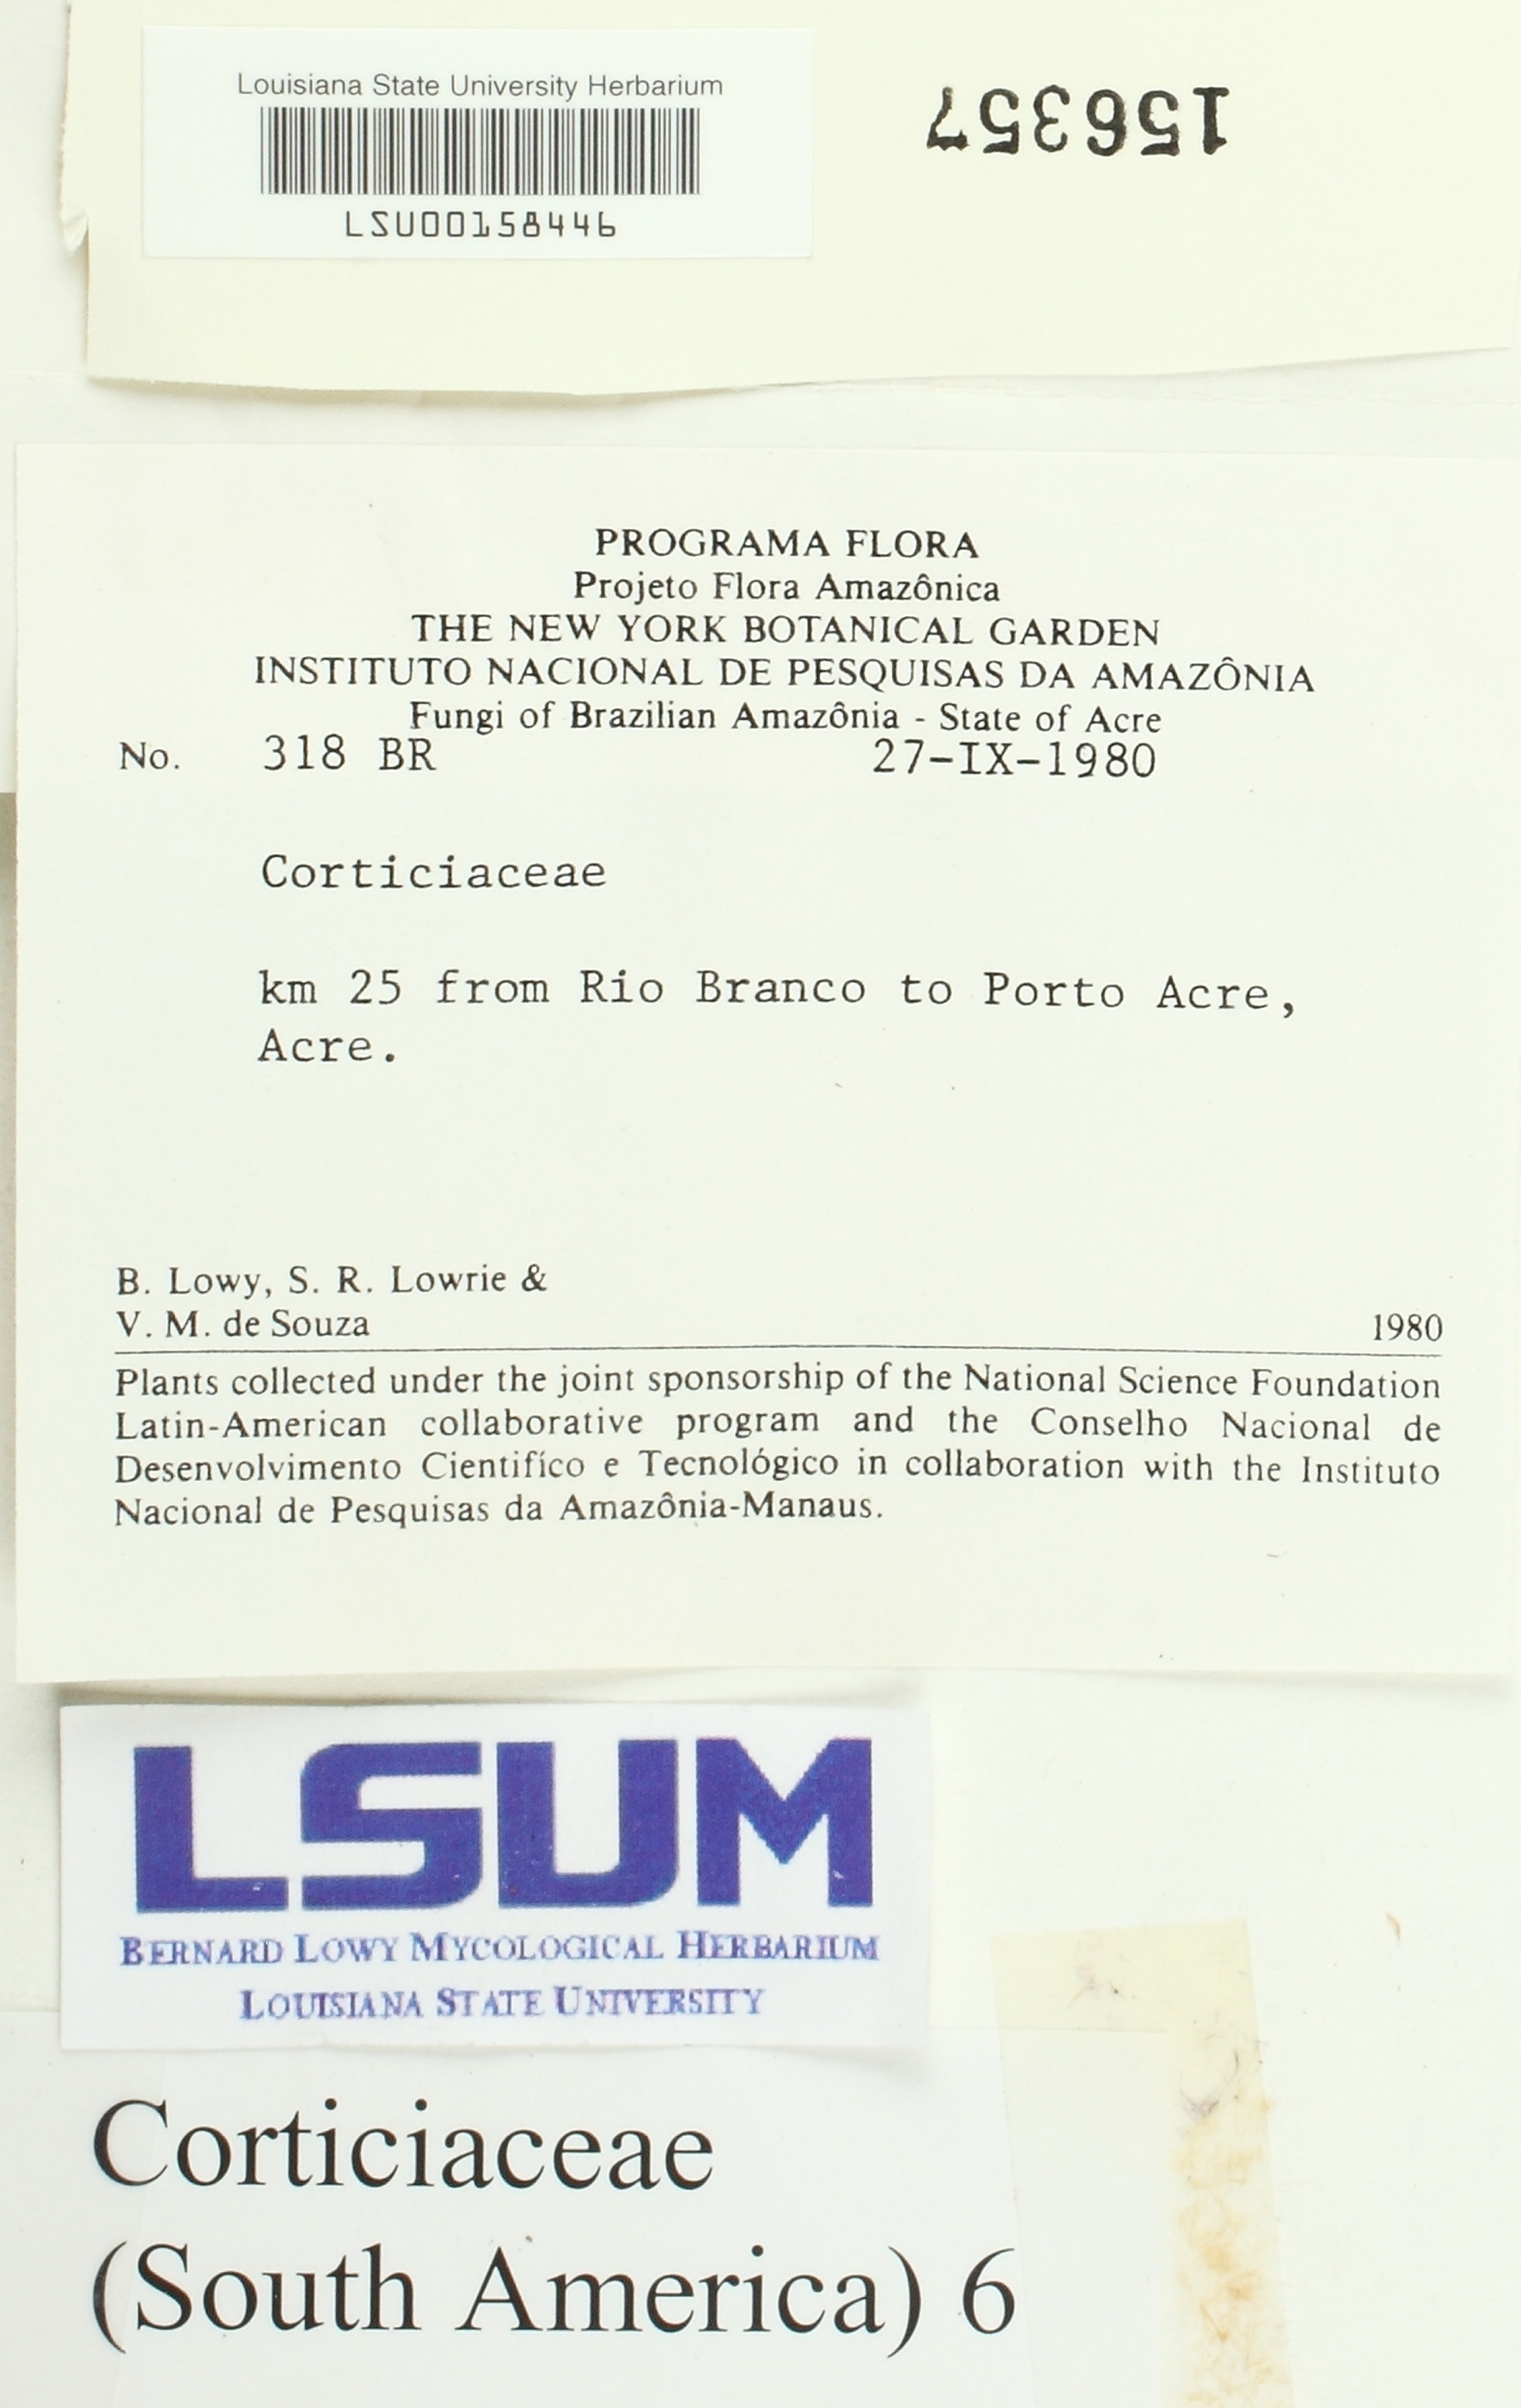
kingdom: Fungi
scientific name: Fungi
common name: Fungi
